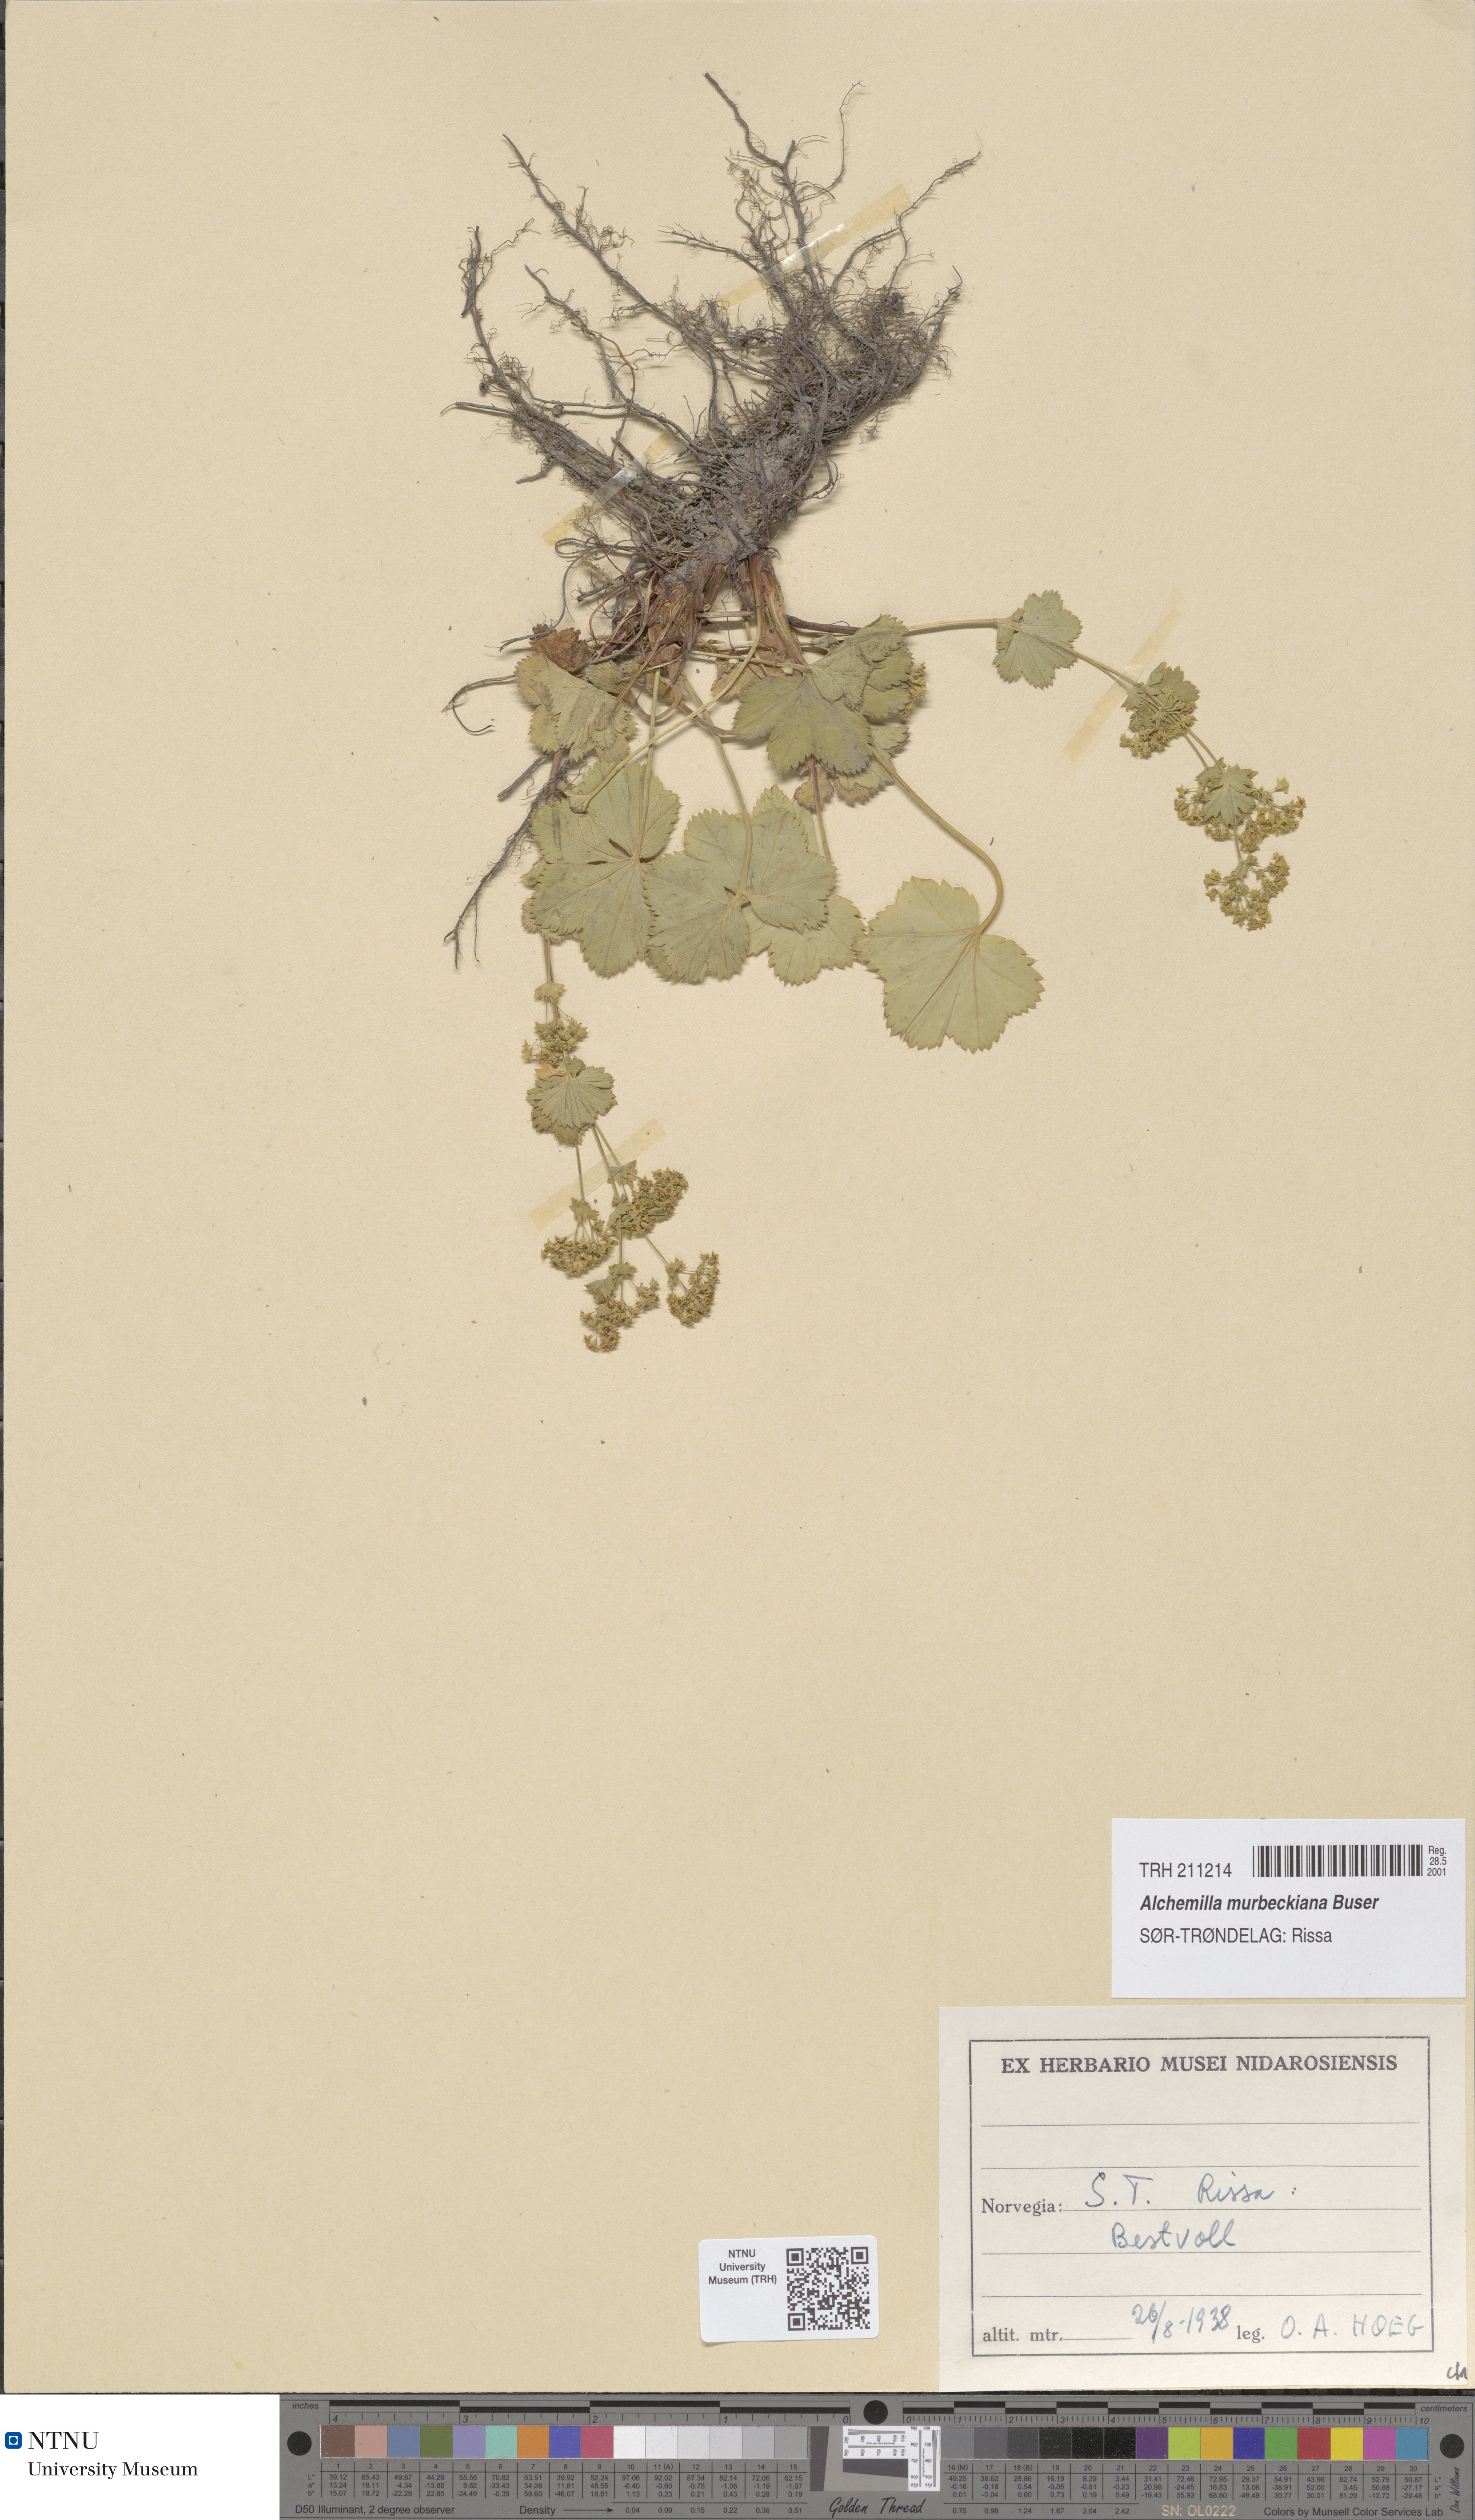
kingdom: Plantae
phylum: Tracheophyta
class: Magnoliopsida
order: Rosales
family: Rosaceae
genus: Alchemilla
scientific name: Alchemilla murbeckiana
